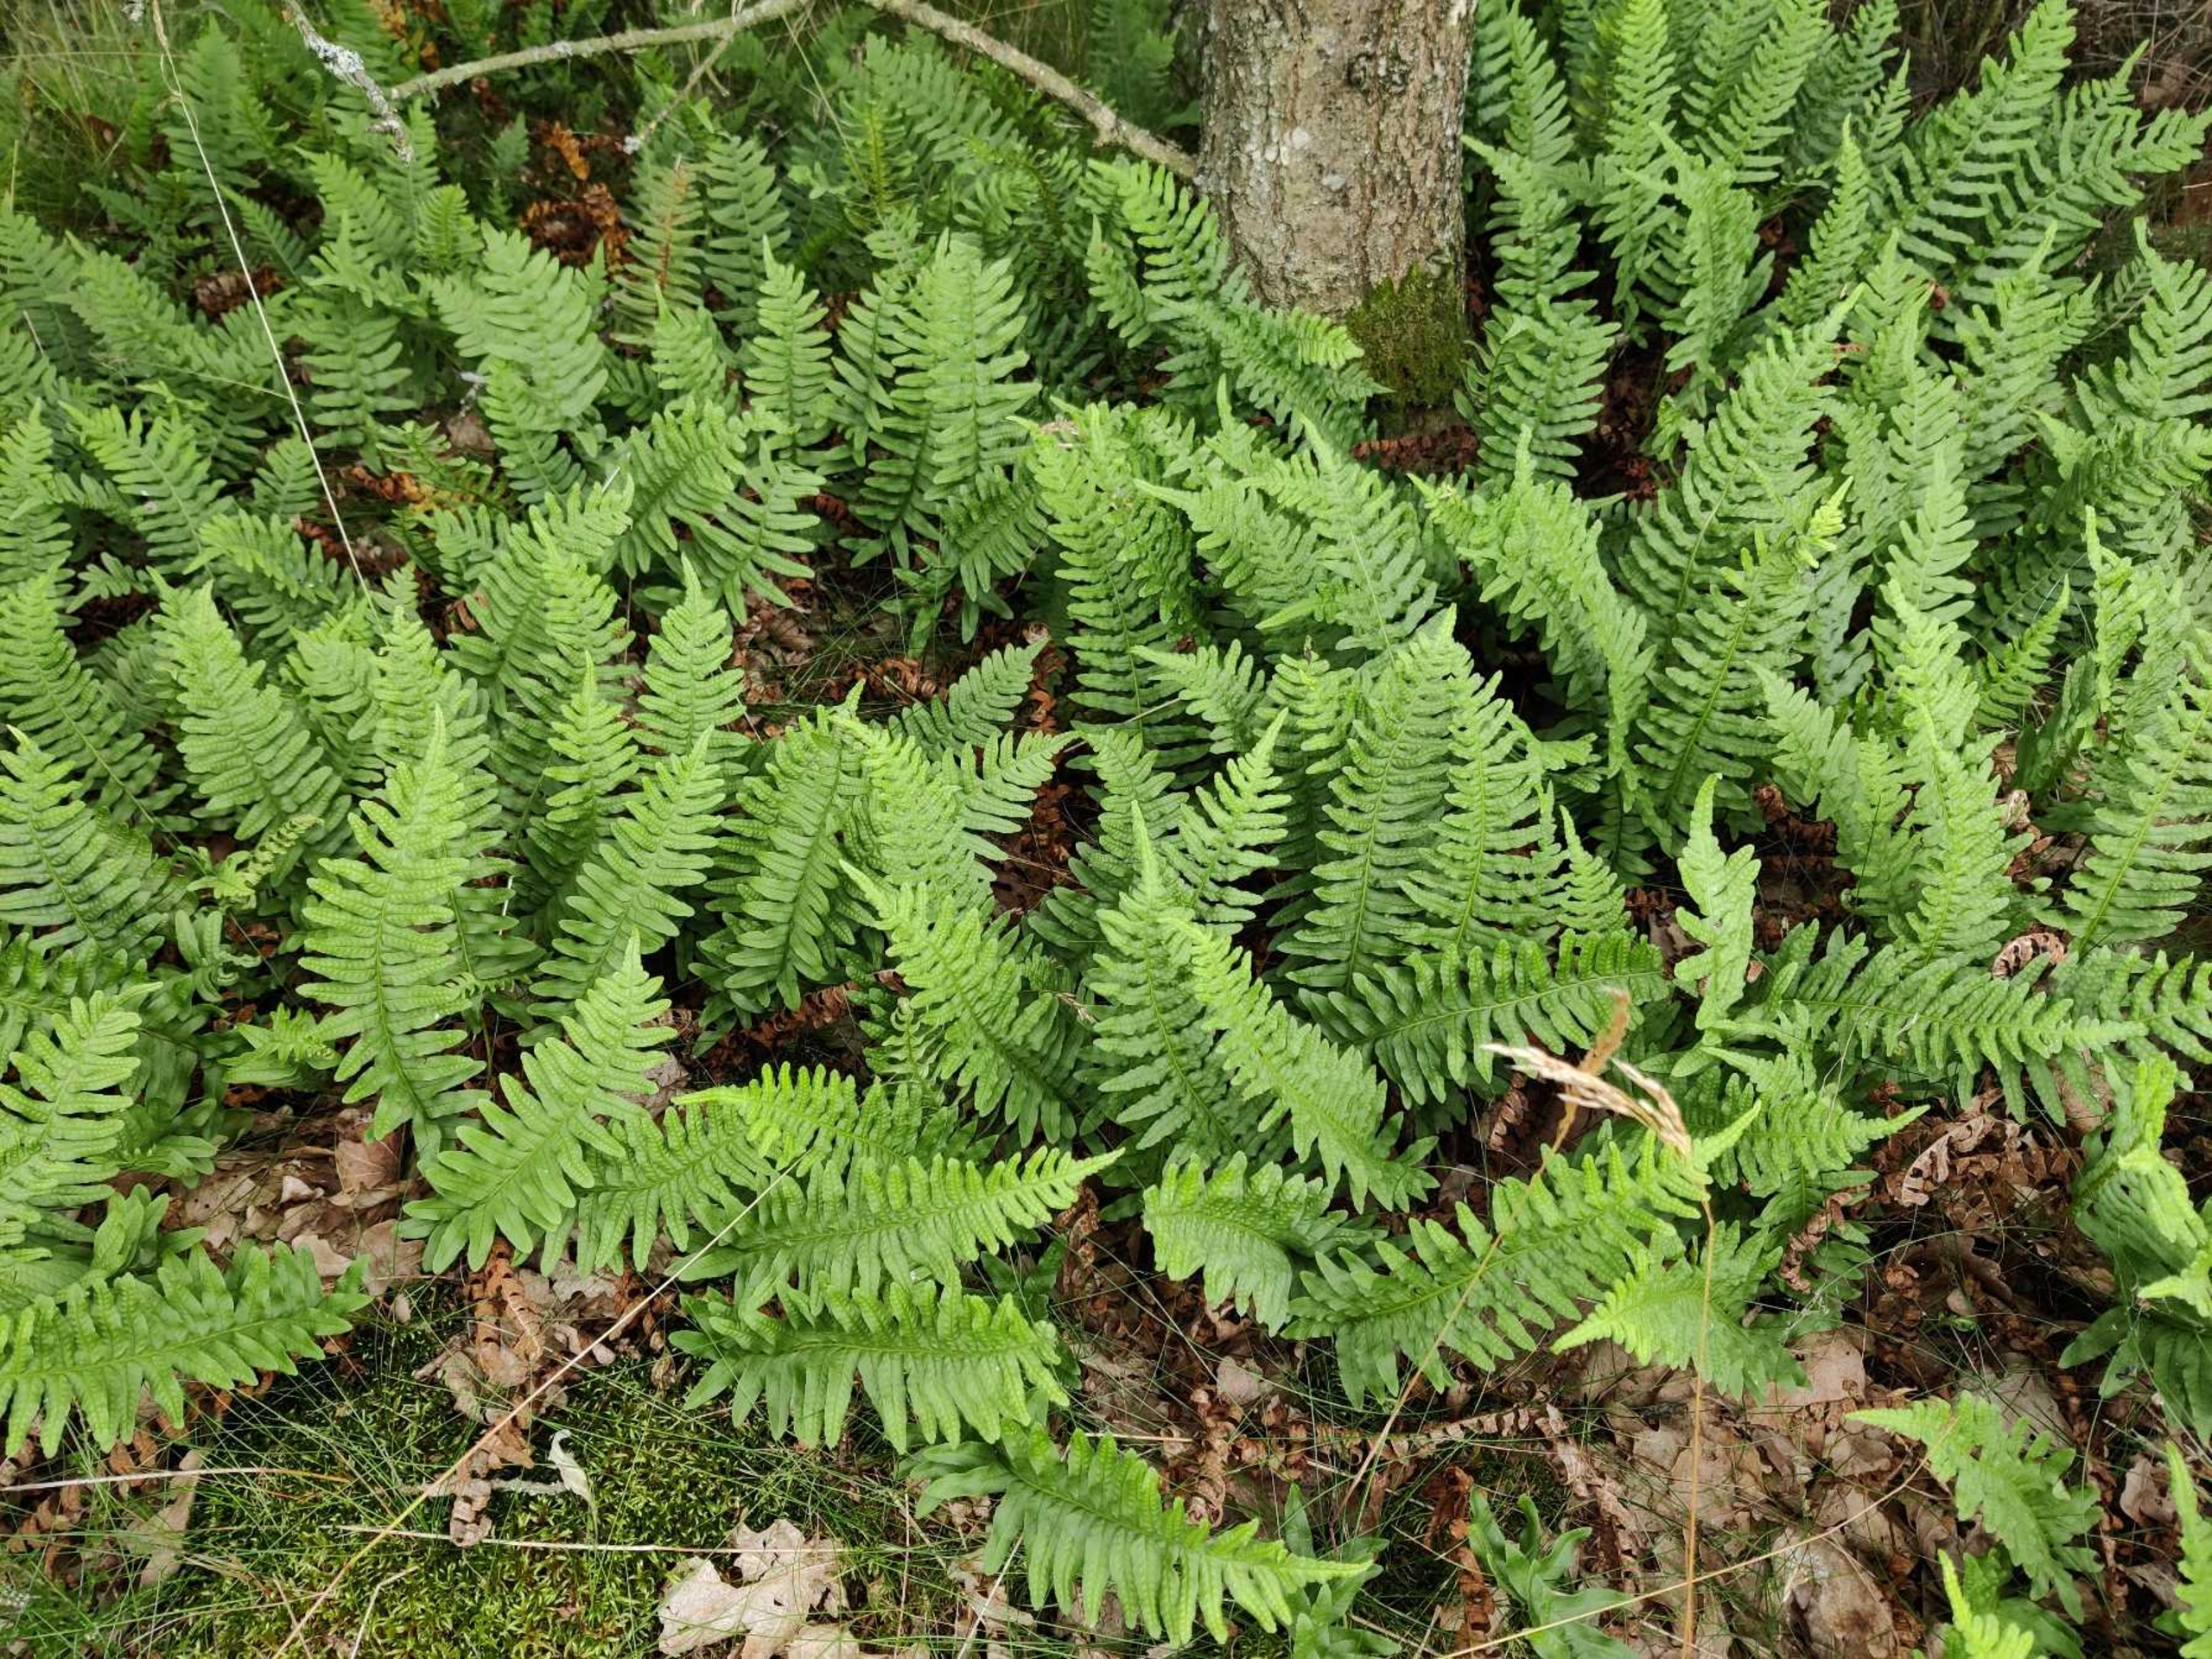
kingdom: Plantae
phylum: Tracheophyta
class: Polypodiopsida
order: Polypodiales
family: Polypodiaceae
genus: Polypodium
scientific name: Polypodium vulgare
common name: Almindelig engelsød
